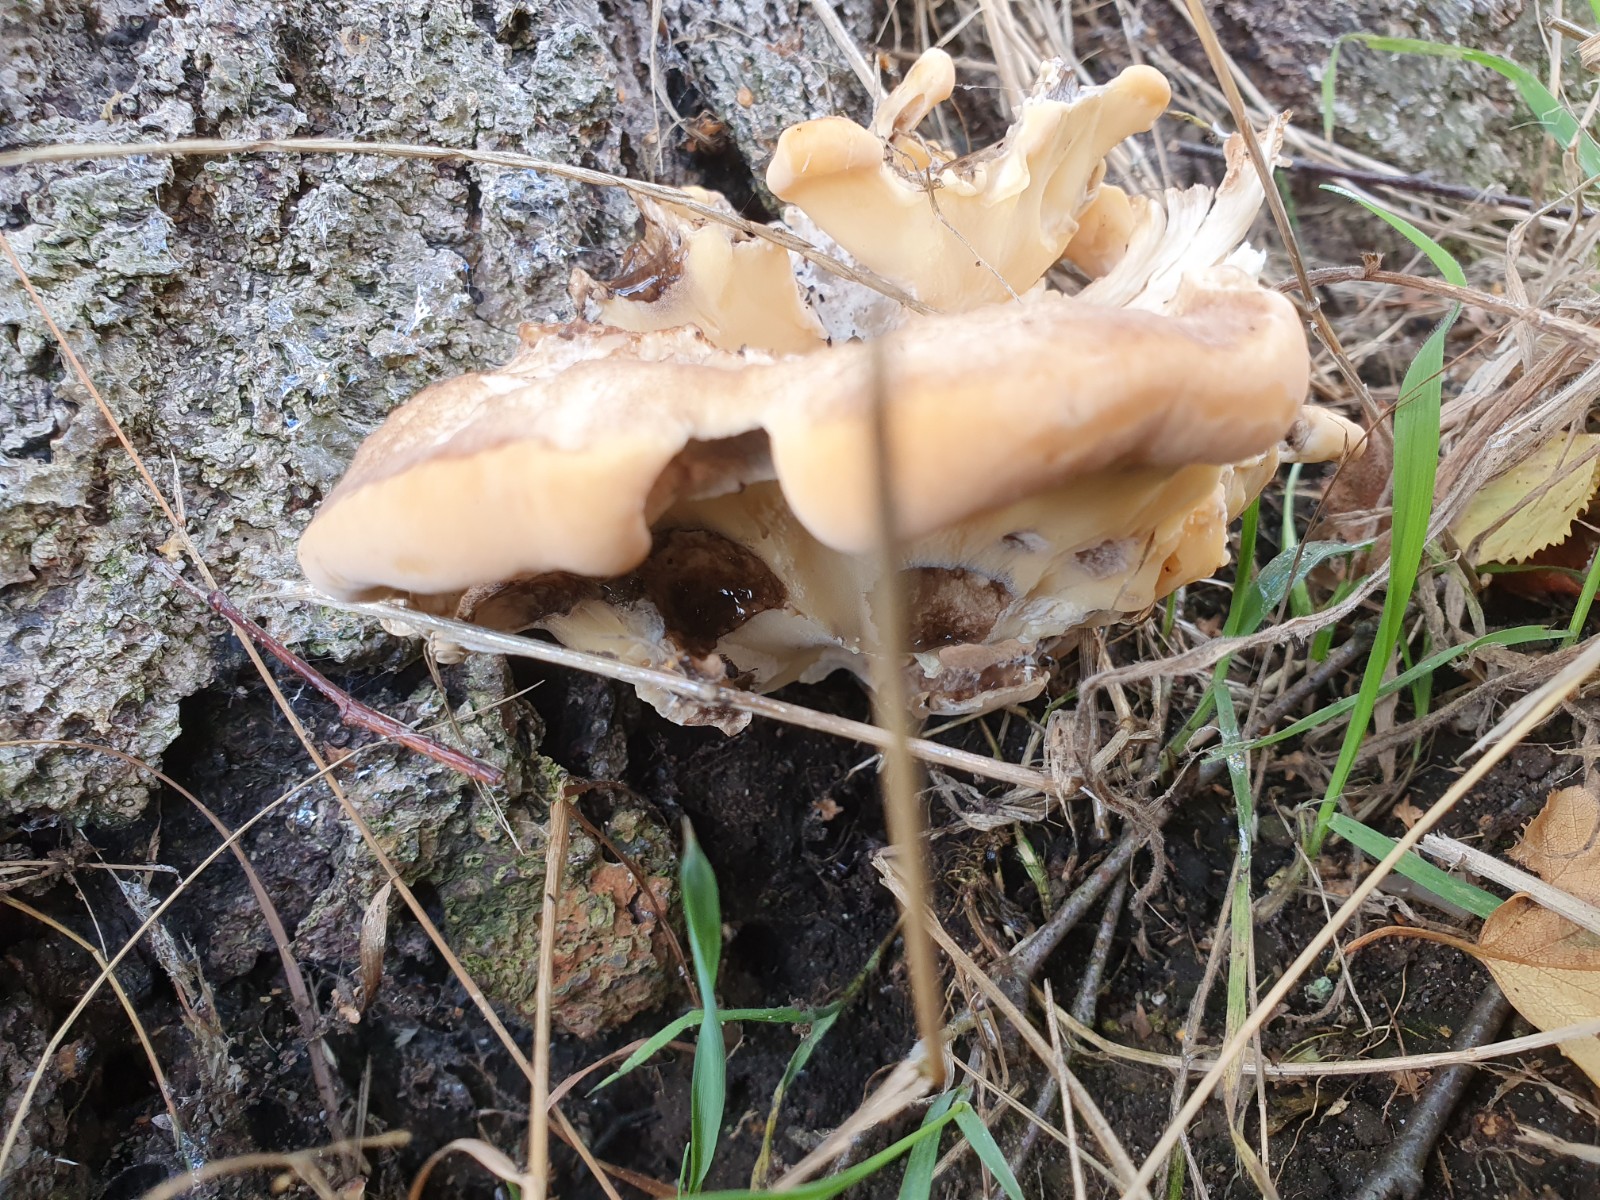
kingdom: Fungi
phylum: Basidiomycota
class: Agaricomycetes
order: Polyporales
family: Meripilaceae
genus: Meripilus
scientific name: Meripilus giganteus
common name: kæmpeporesvamp
